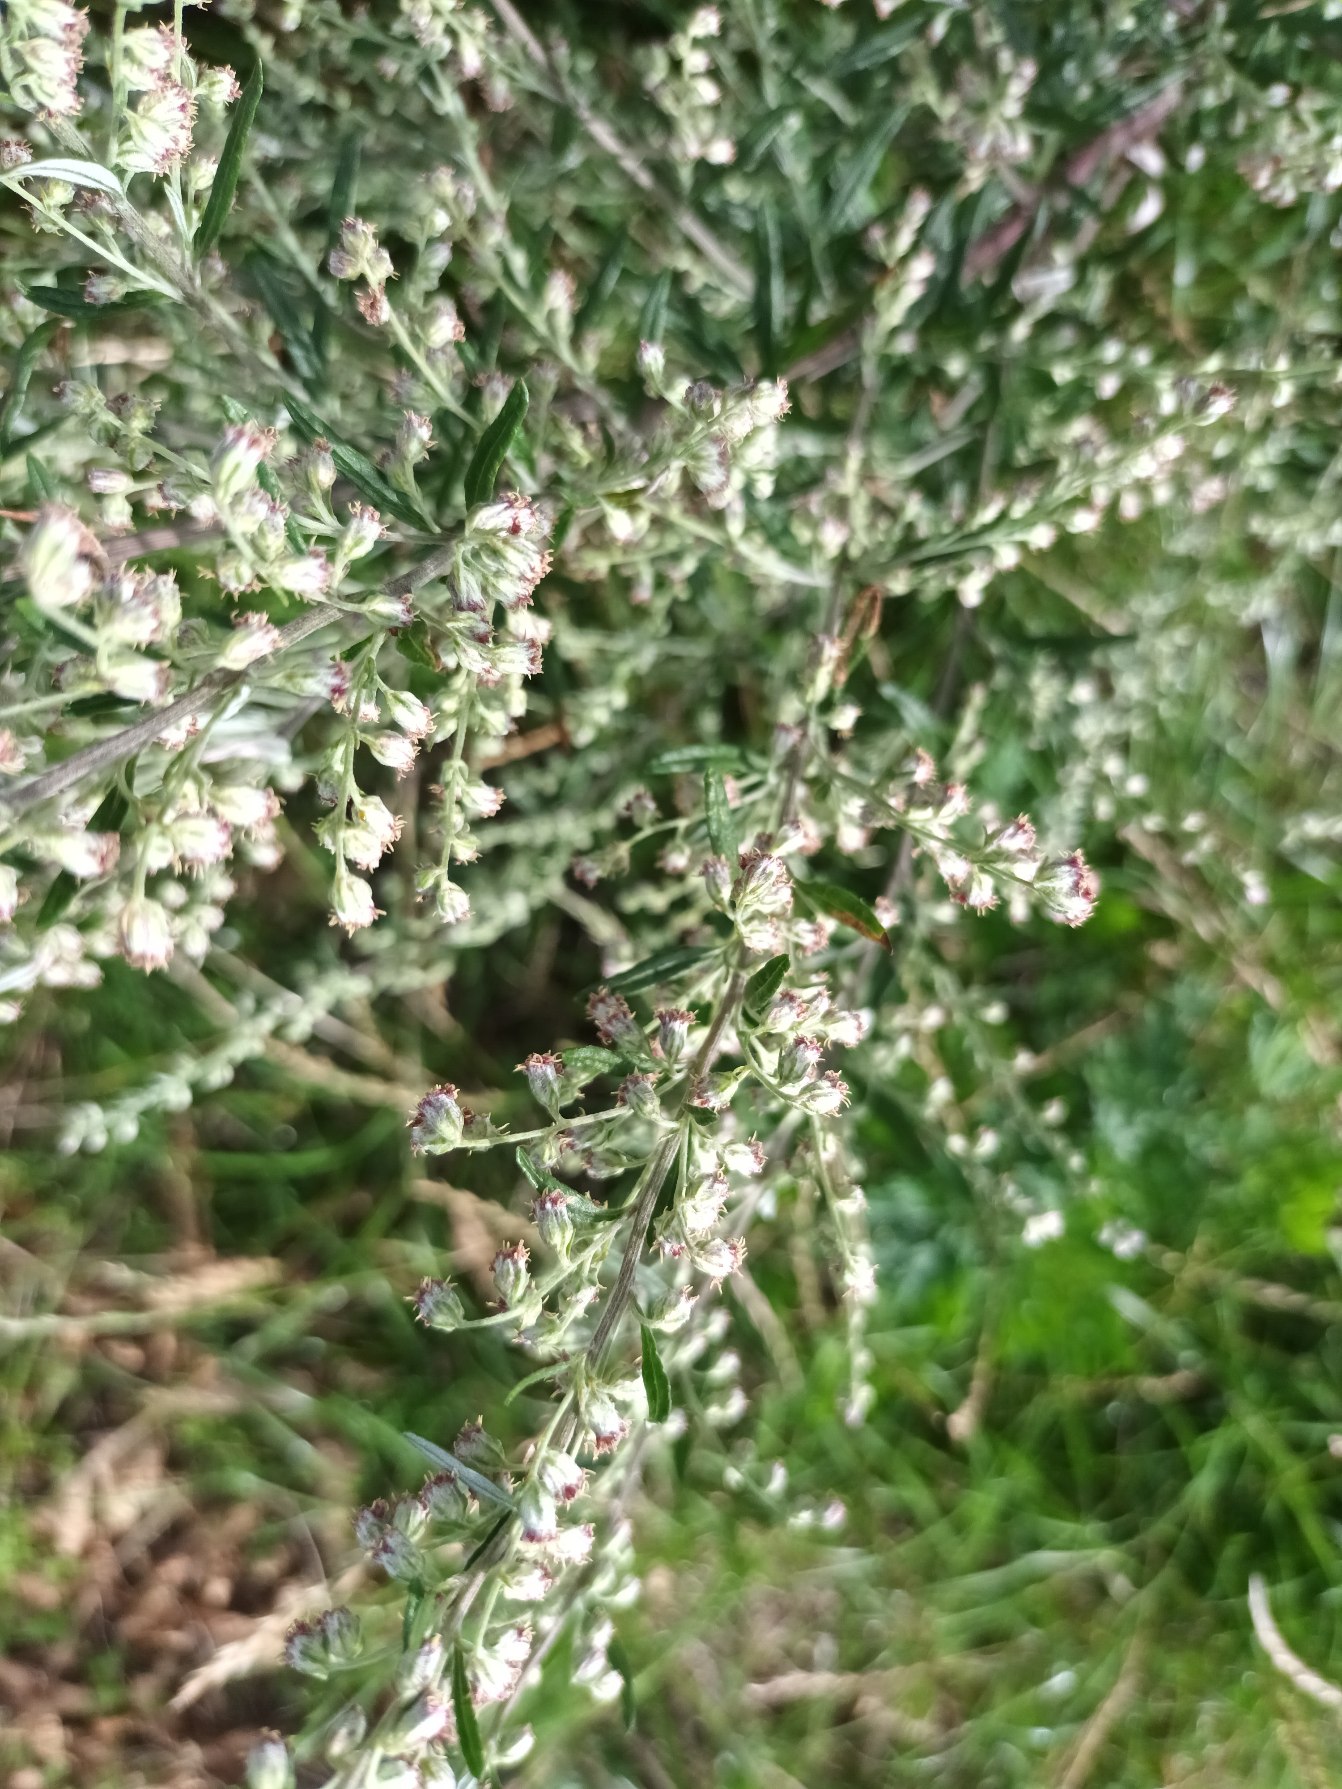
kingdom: Plantae
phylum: Tracheophyta
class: Magnoliopsida
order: Asterales
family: Asteraceae
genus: Artemisia
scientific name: Artemisia vulgaris
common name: Grå-bynke
